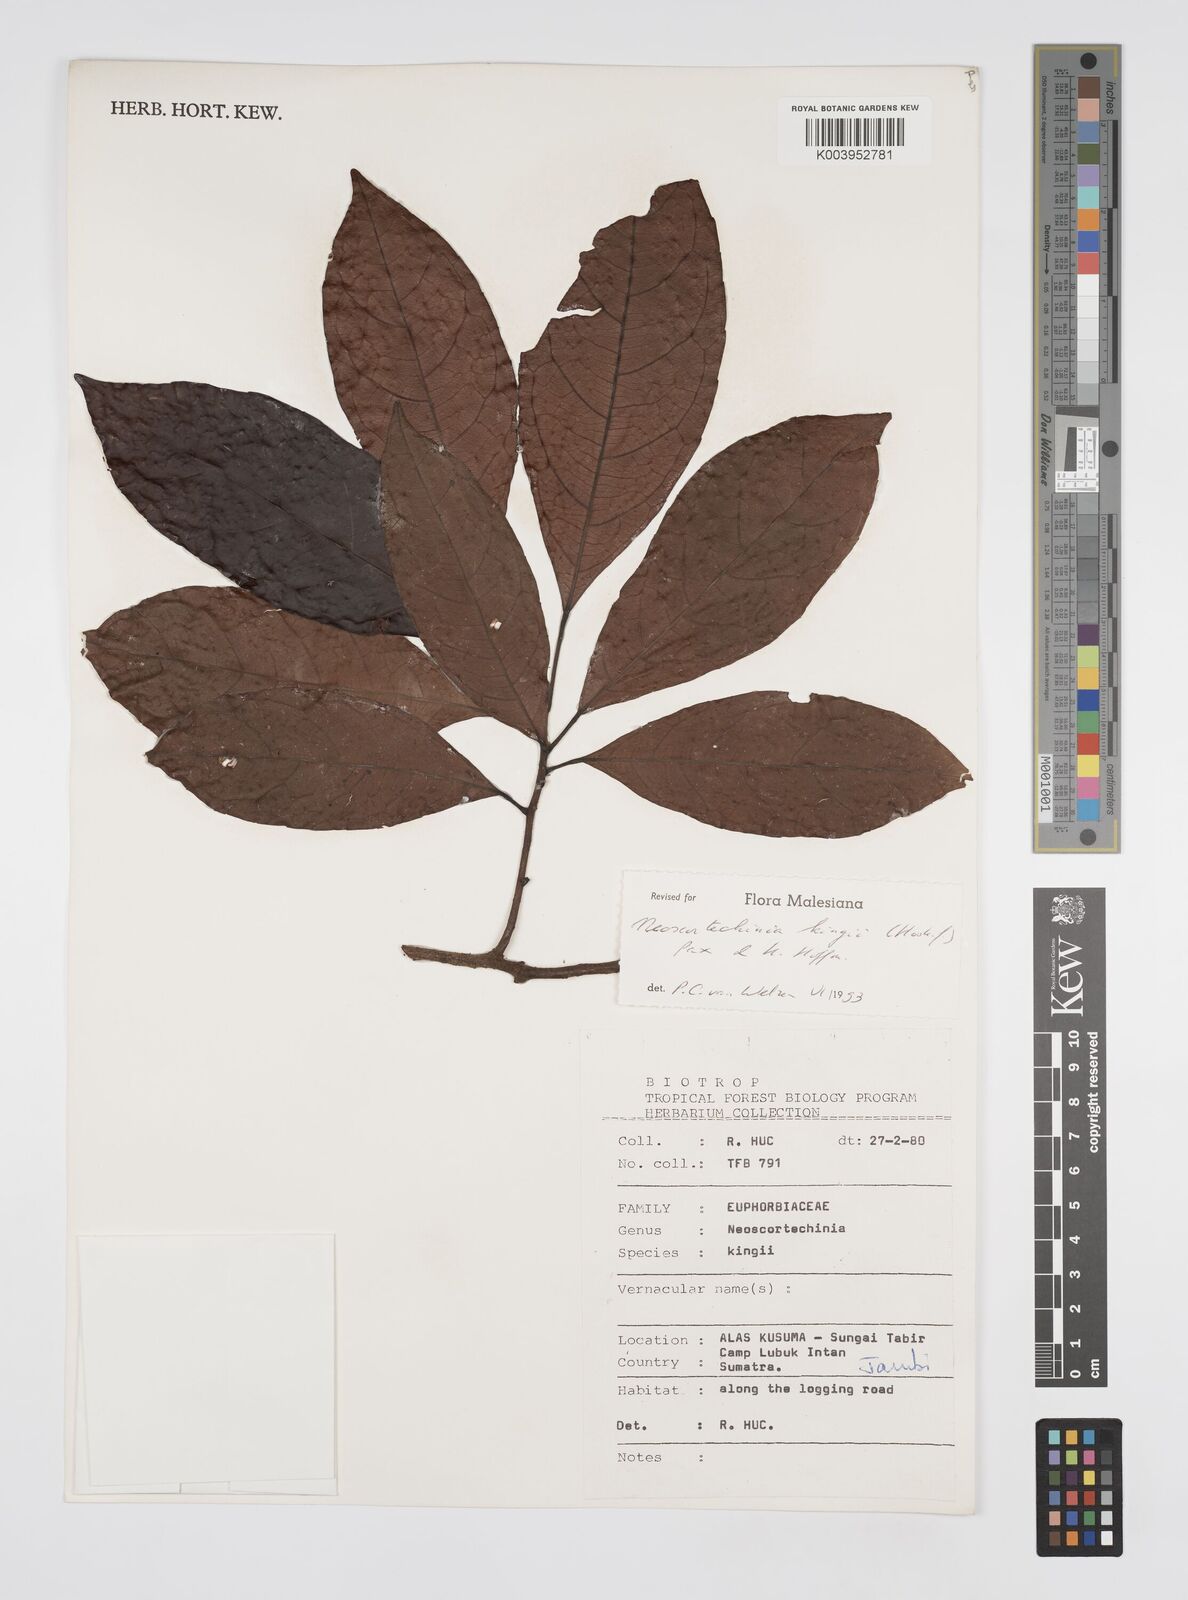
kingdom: Plantae
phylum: Tracheophyta
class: Magnoliopsida
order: Malpighiales
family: Euphorbiaceae
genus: Neoscortechinia
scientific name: Neoscortechinia kingii
